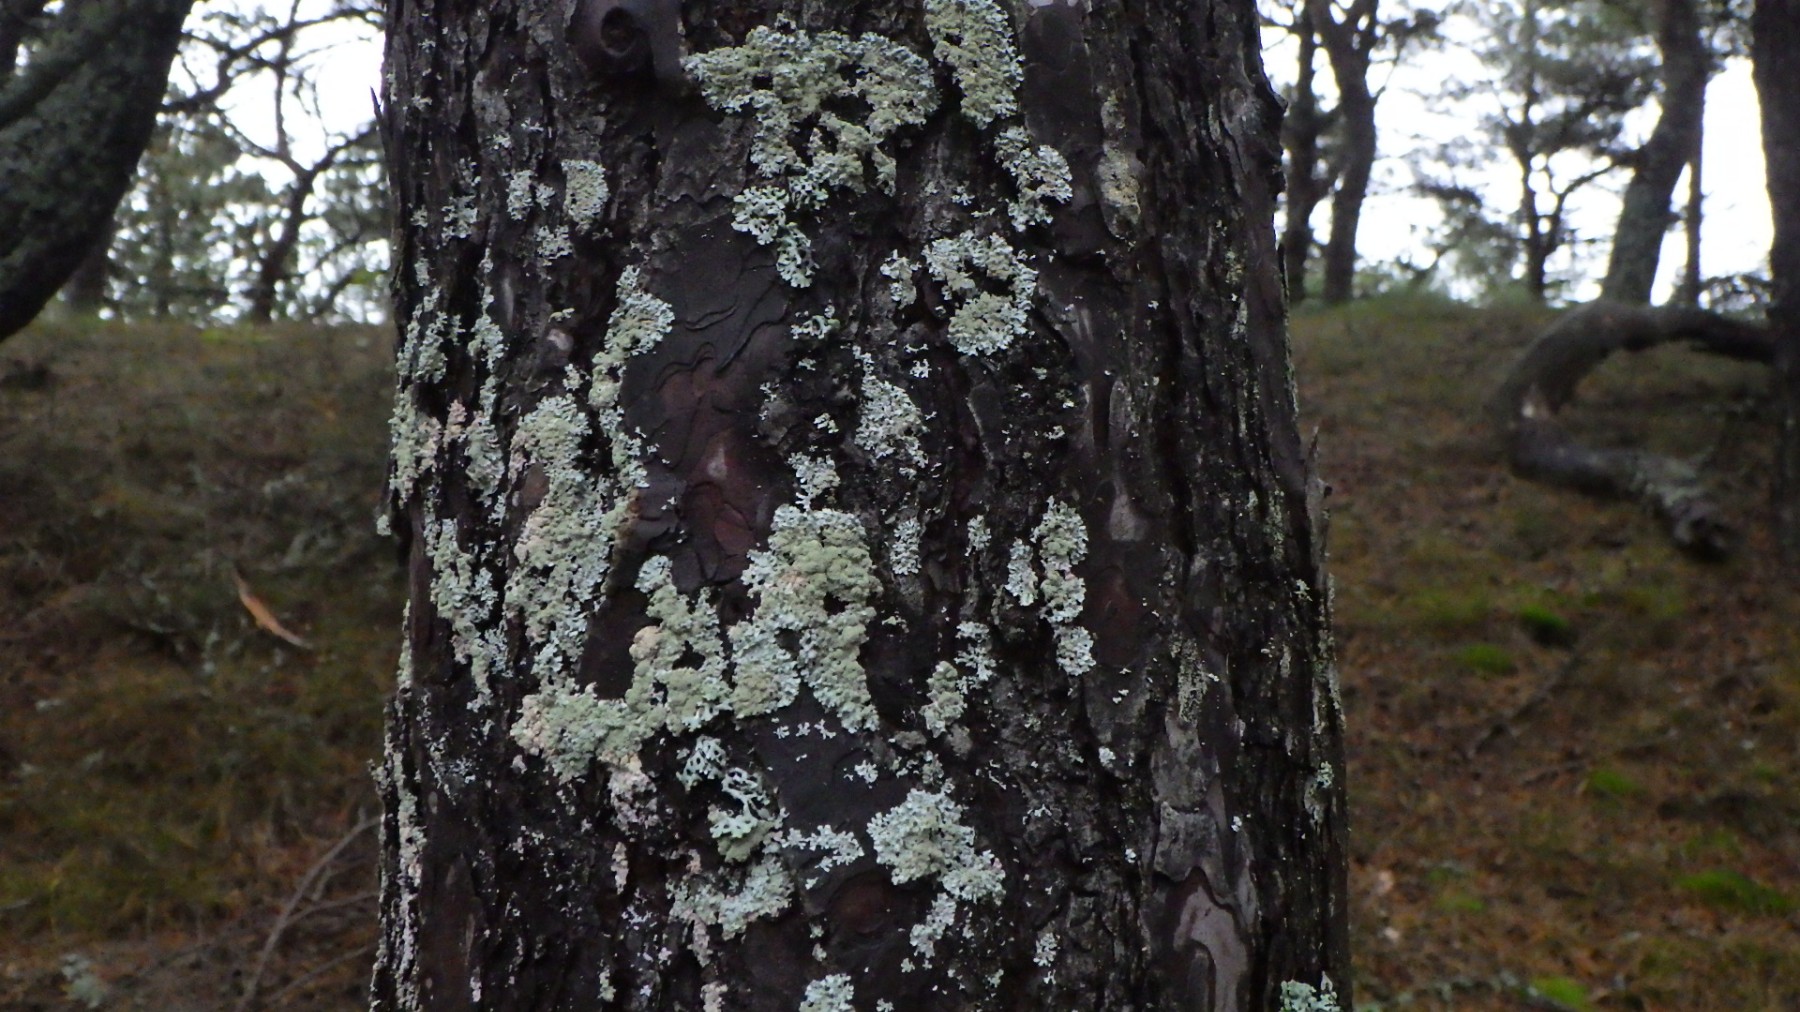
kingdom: Fungi
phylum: Ascomycota
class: Lecanoromycetes
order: Lecanorales
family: Parmeliaceae
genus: Imshaugia
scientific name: Imshaugia aleurites
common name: kliddet stolpelav
